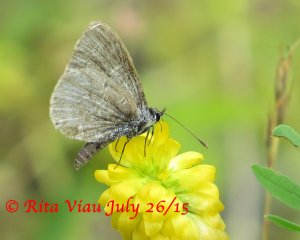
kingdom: Animalia
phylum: Arthropoda
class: Insecta
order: Lepidoptera
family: Lycaenidae
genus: Celastrina
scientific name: Celastrina
